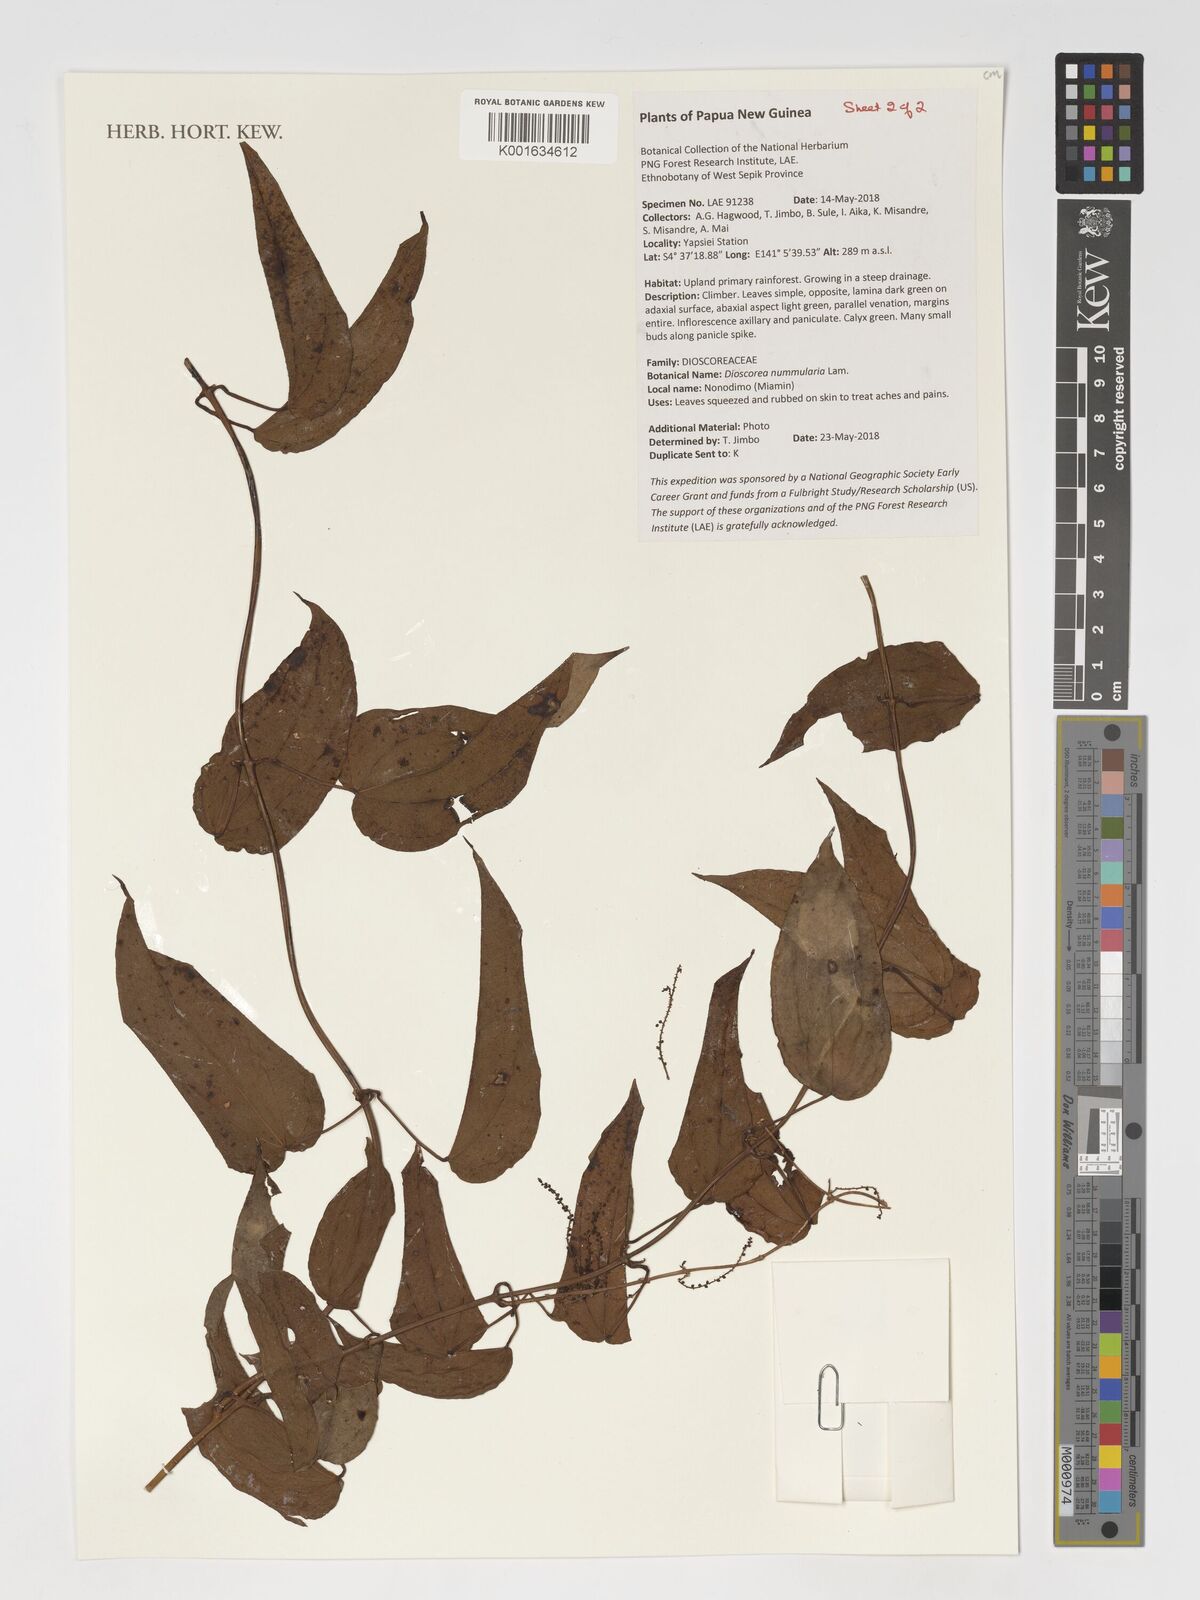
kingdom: Plantae
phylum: Tracheophyta
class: Liliopsida
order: Dioscoreales
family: Dioscoreaceae
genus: Dioscorea
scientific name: Dioscorea nummularia
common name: Pacific yam
